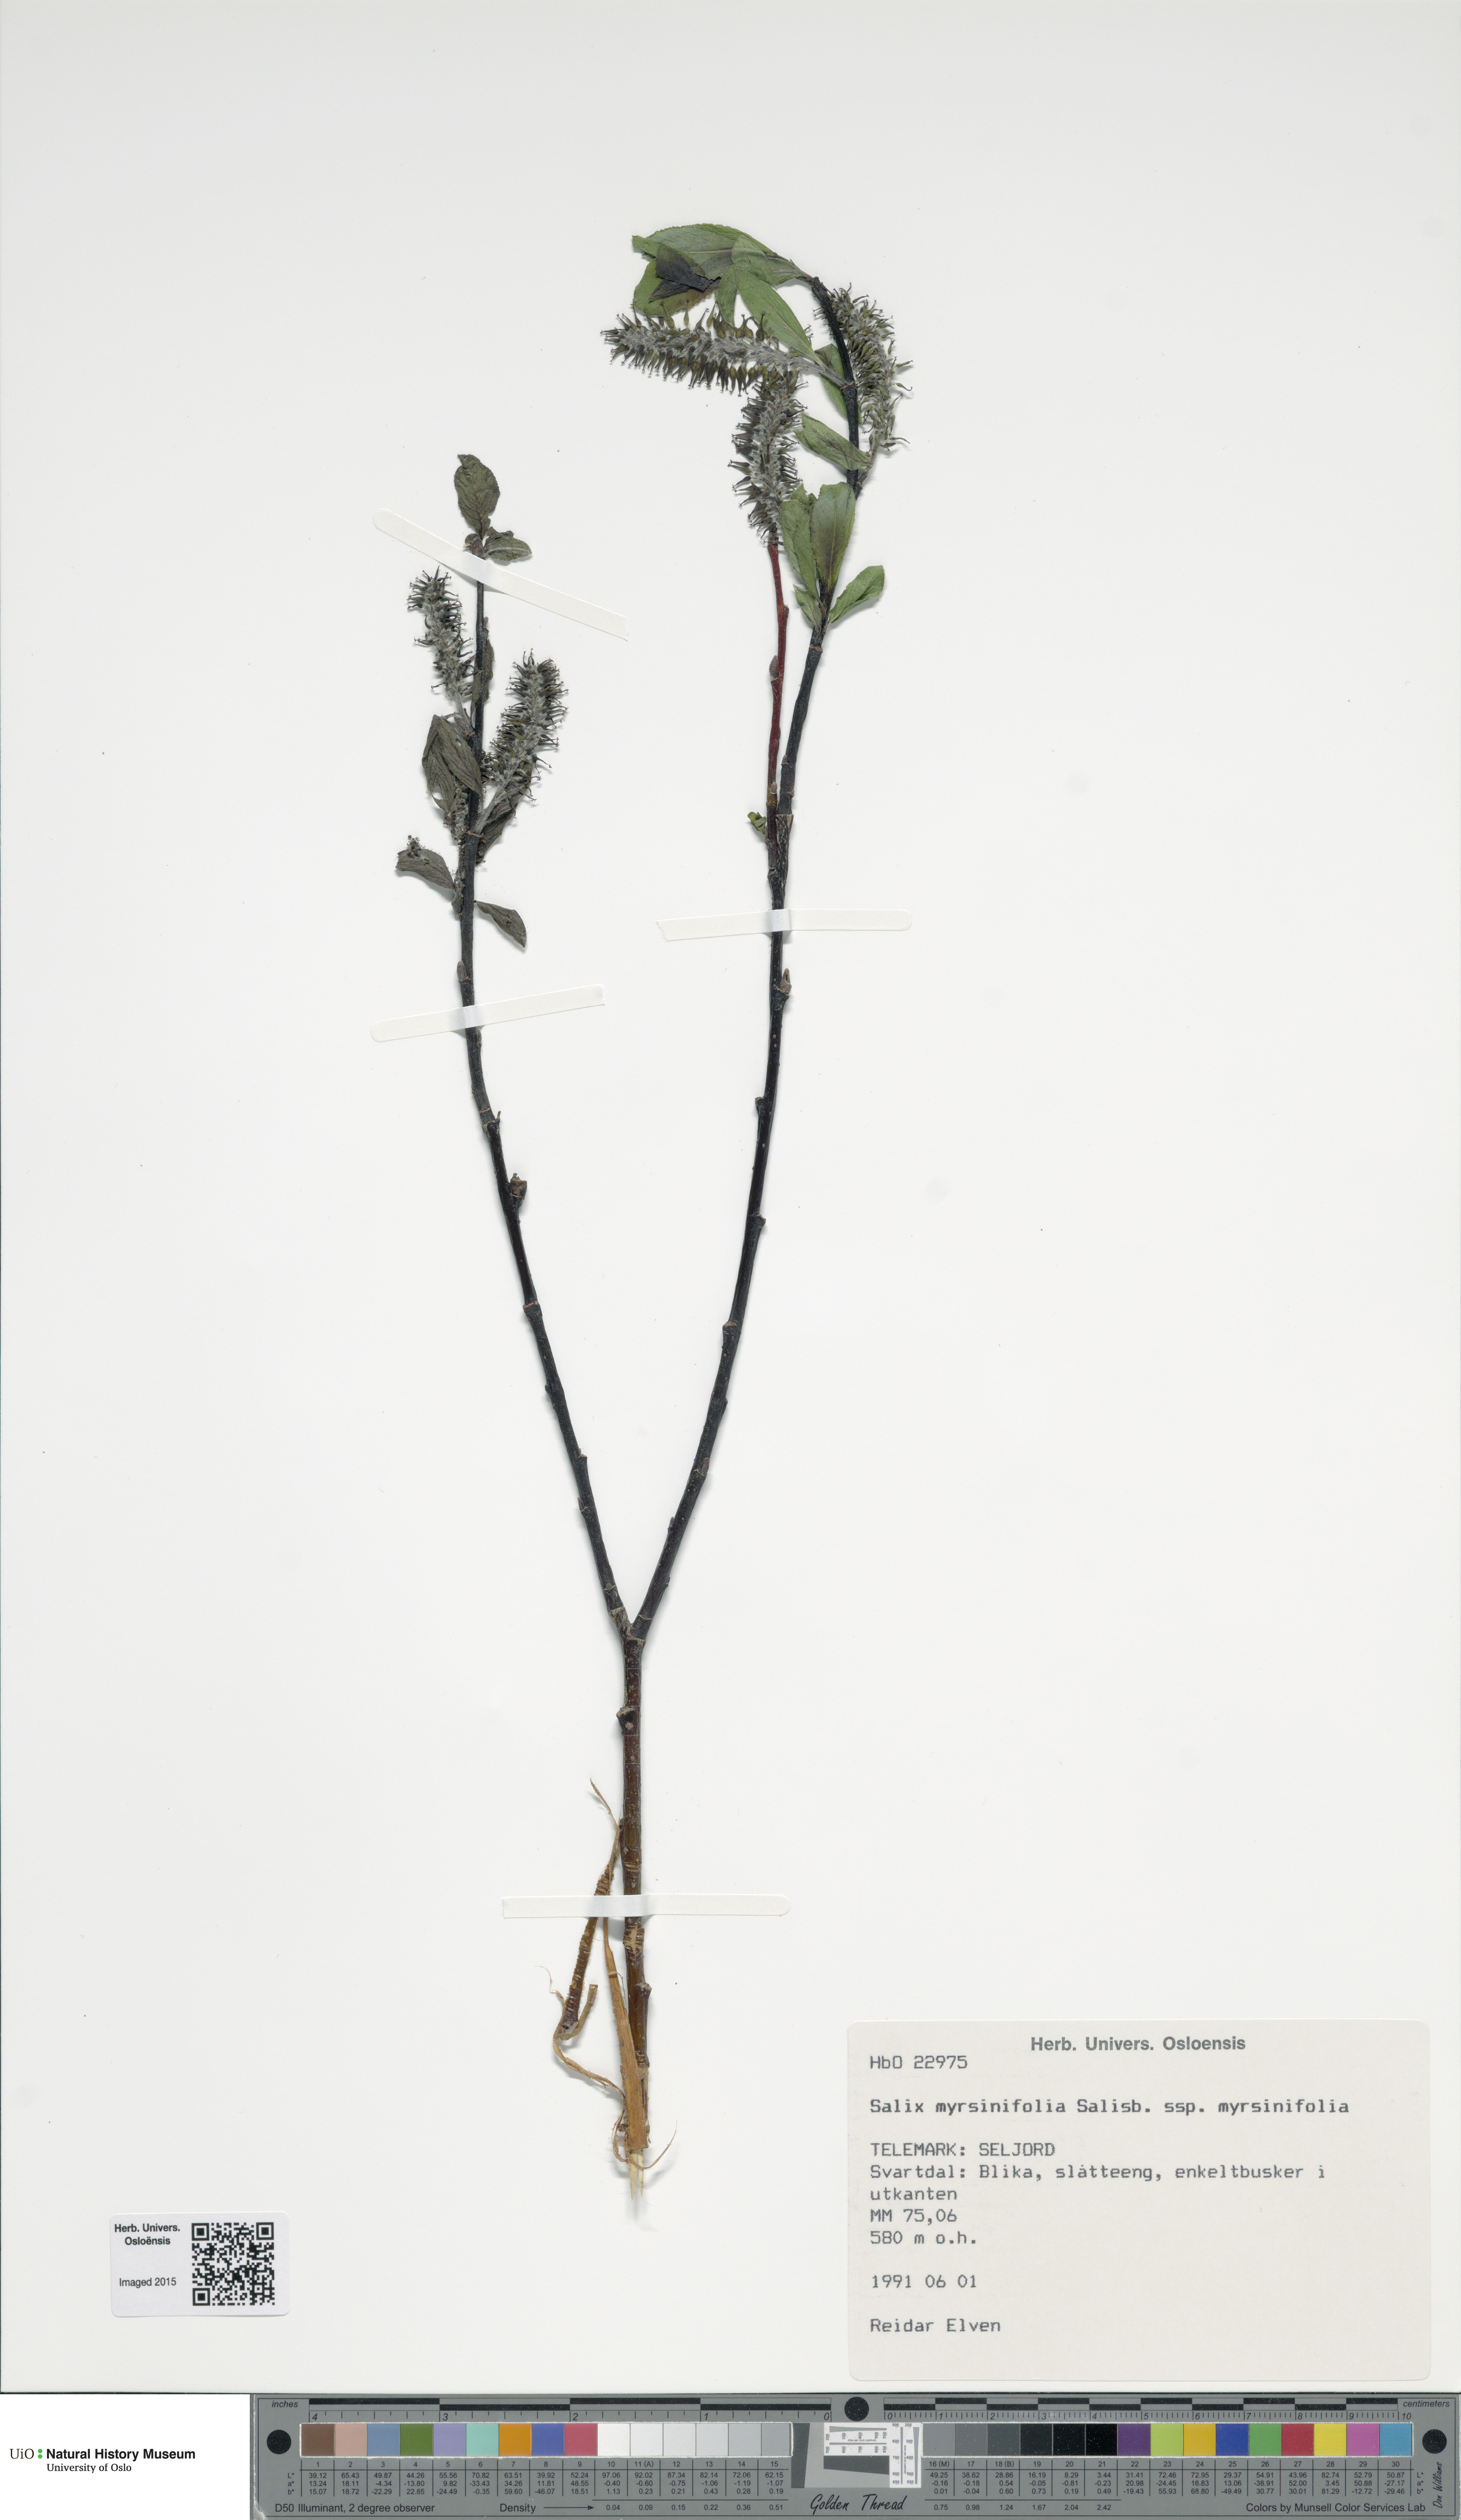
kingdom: Plantae
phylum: Tracheophyta
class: Magnoliopsida
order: Malpighiales
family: Salicaceae
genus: Salix
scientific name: Salix myrsinifolia
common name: Dark-leaved willow
